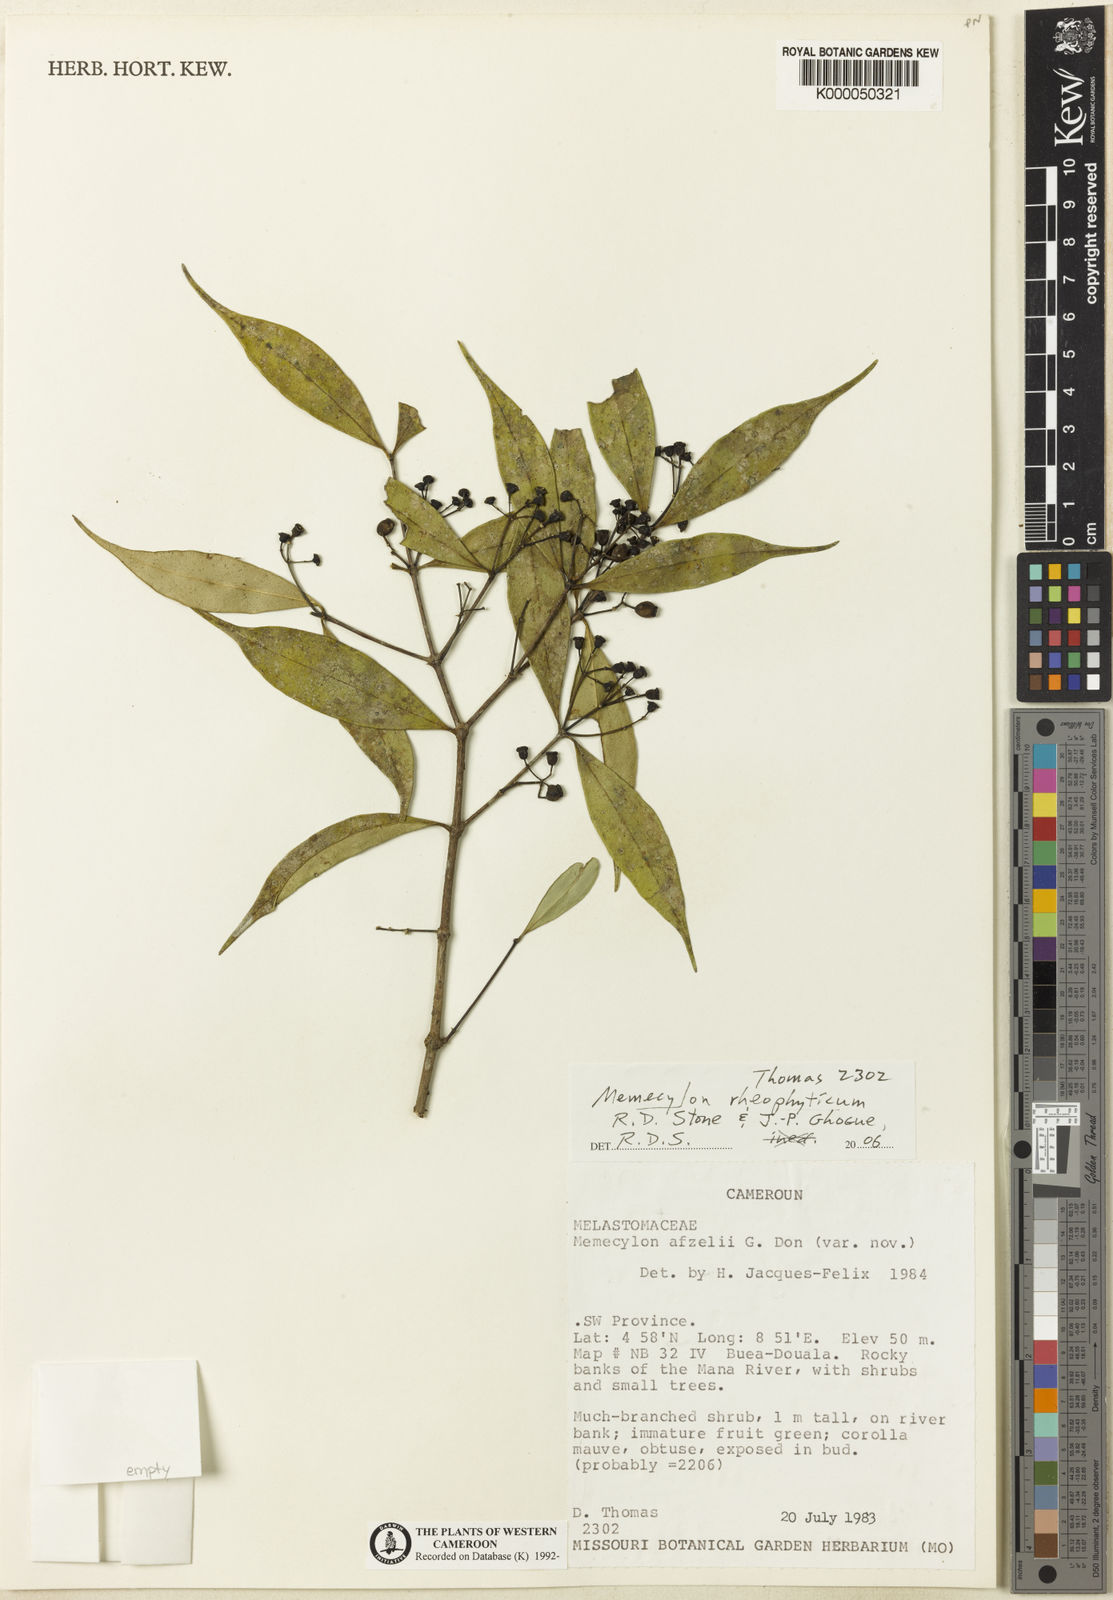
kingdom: Plantae
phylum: Tracheophyta
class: Magnoliopsida
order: Myrtales
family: Melastomataceae
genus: Memecylon
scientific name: Memecylon rheophyticum
